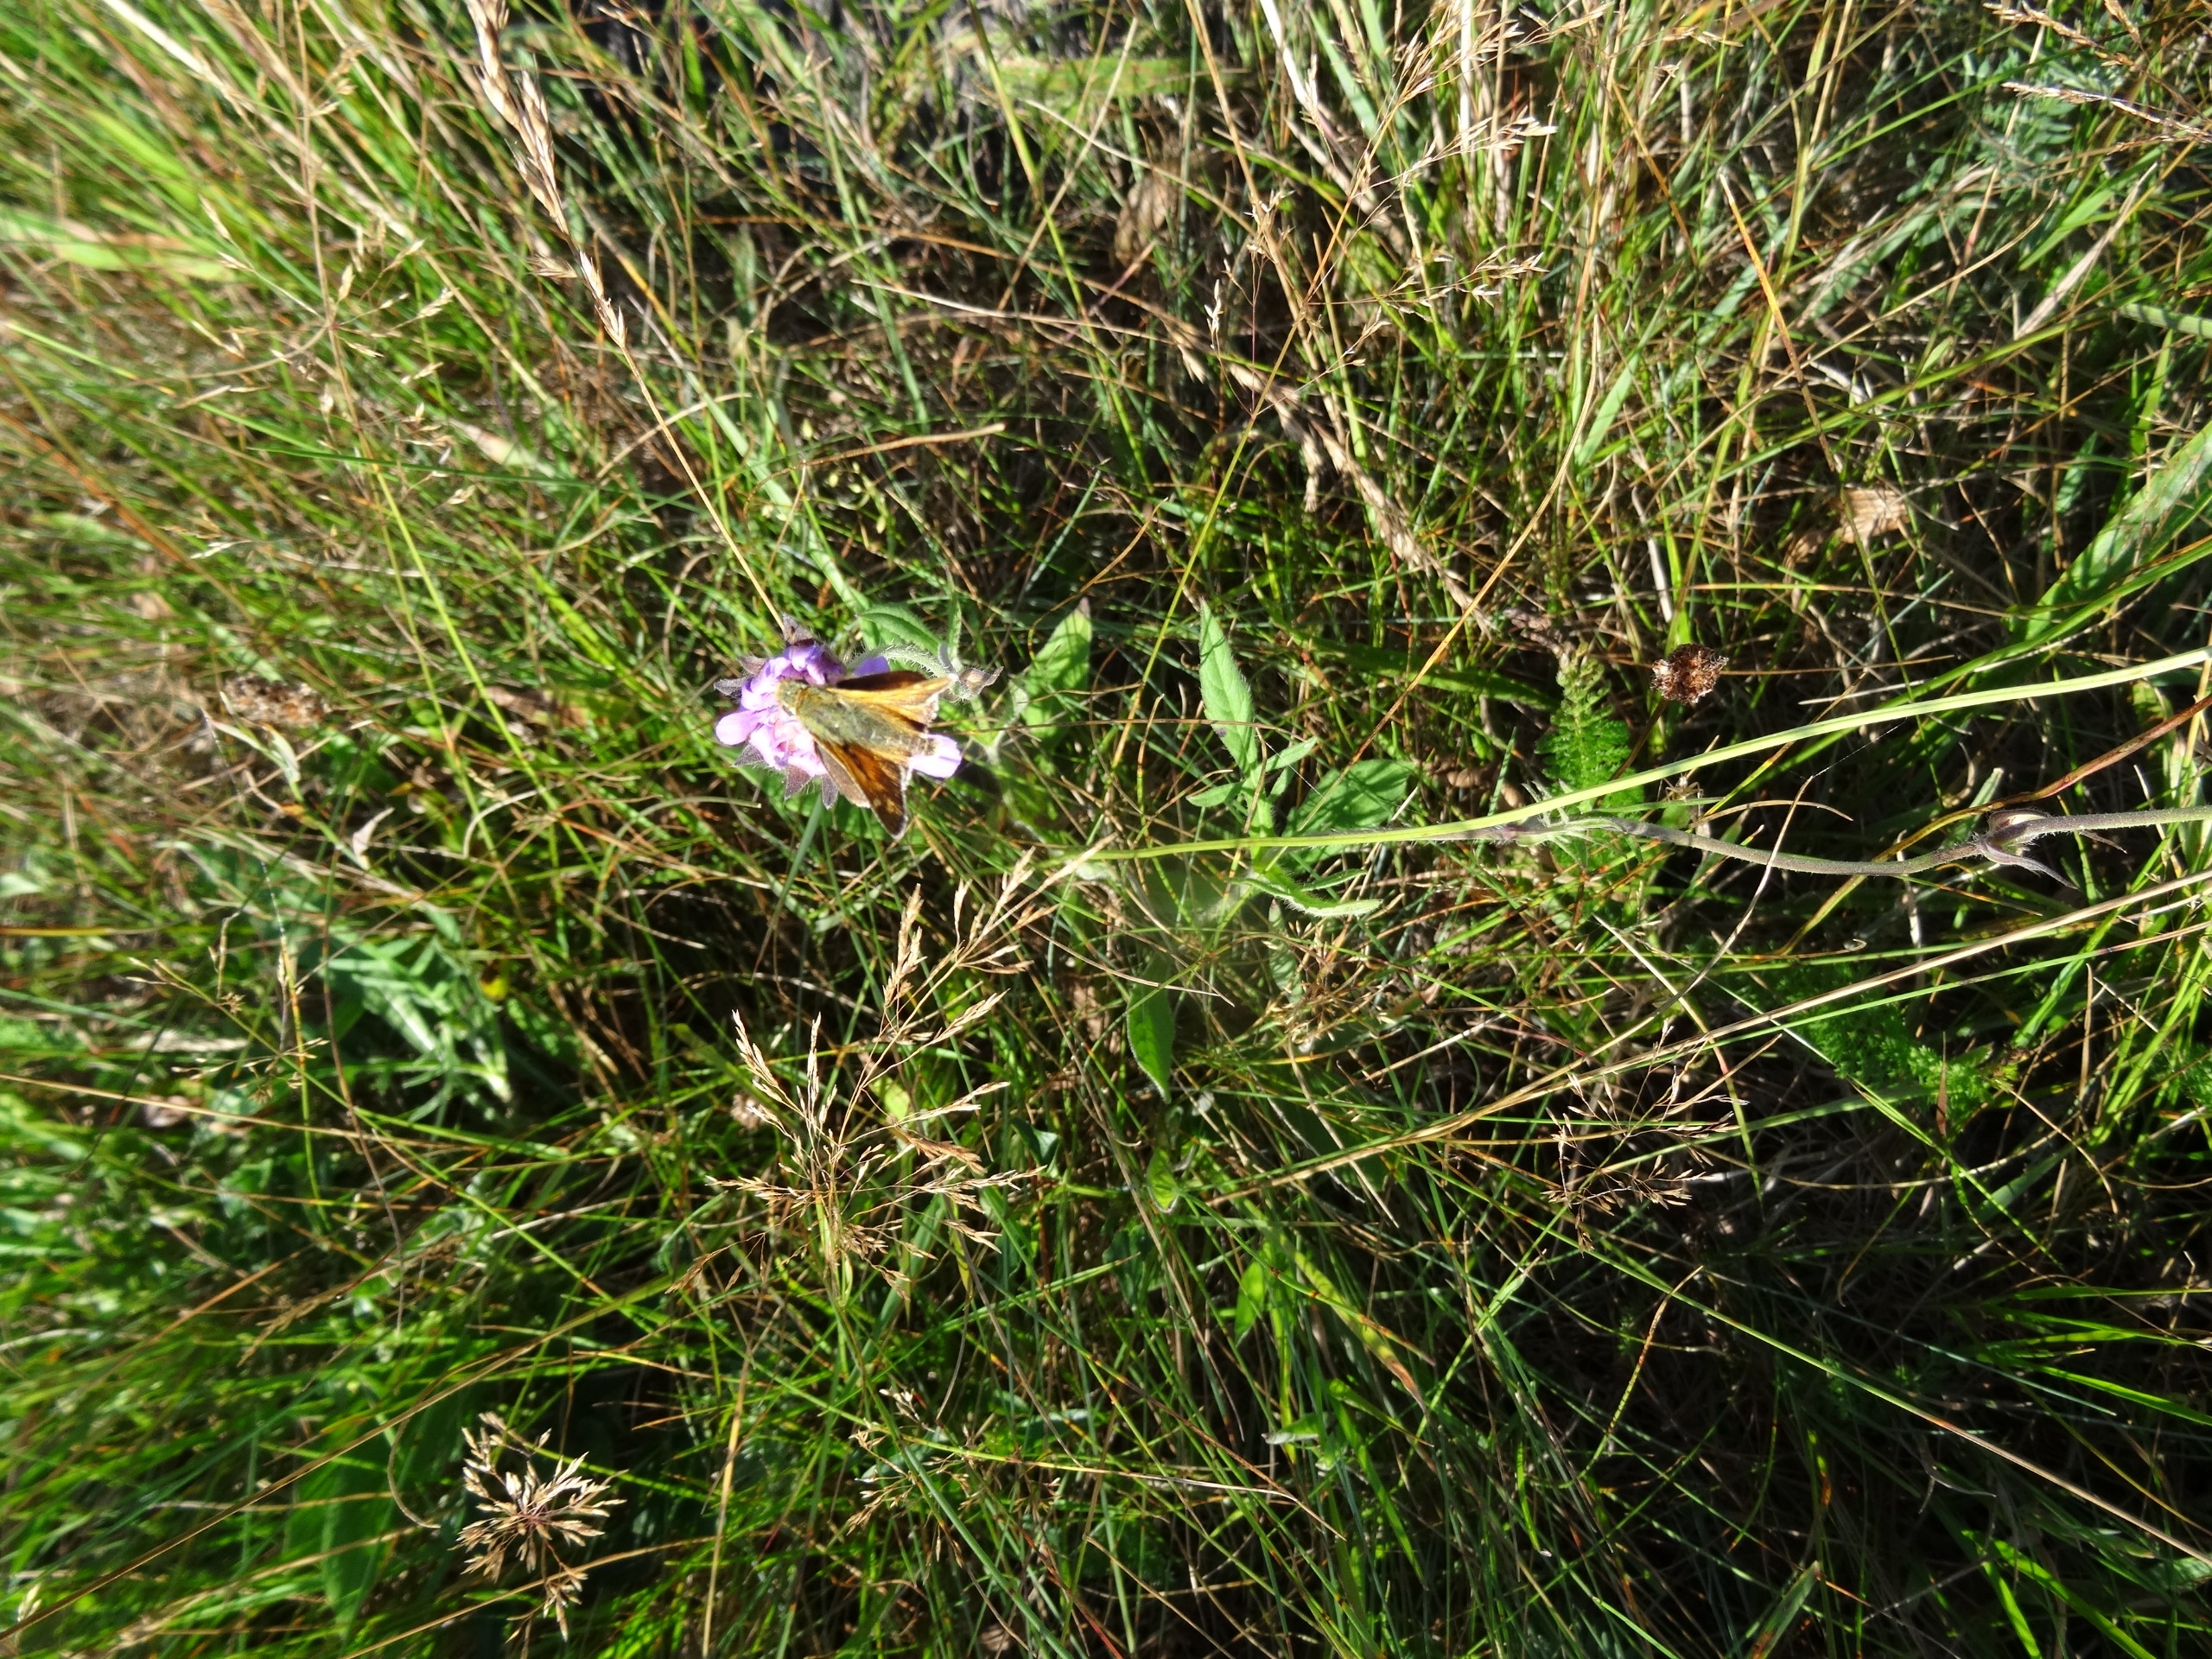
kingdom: Animalia
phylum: Arthropoda
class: Insecta
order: Lepidoptera
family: Hesperiidae
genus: Hesperia
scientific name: Hesperia comma
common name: Kommabredpande
